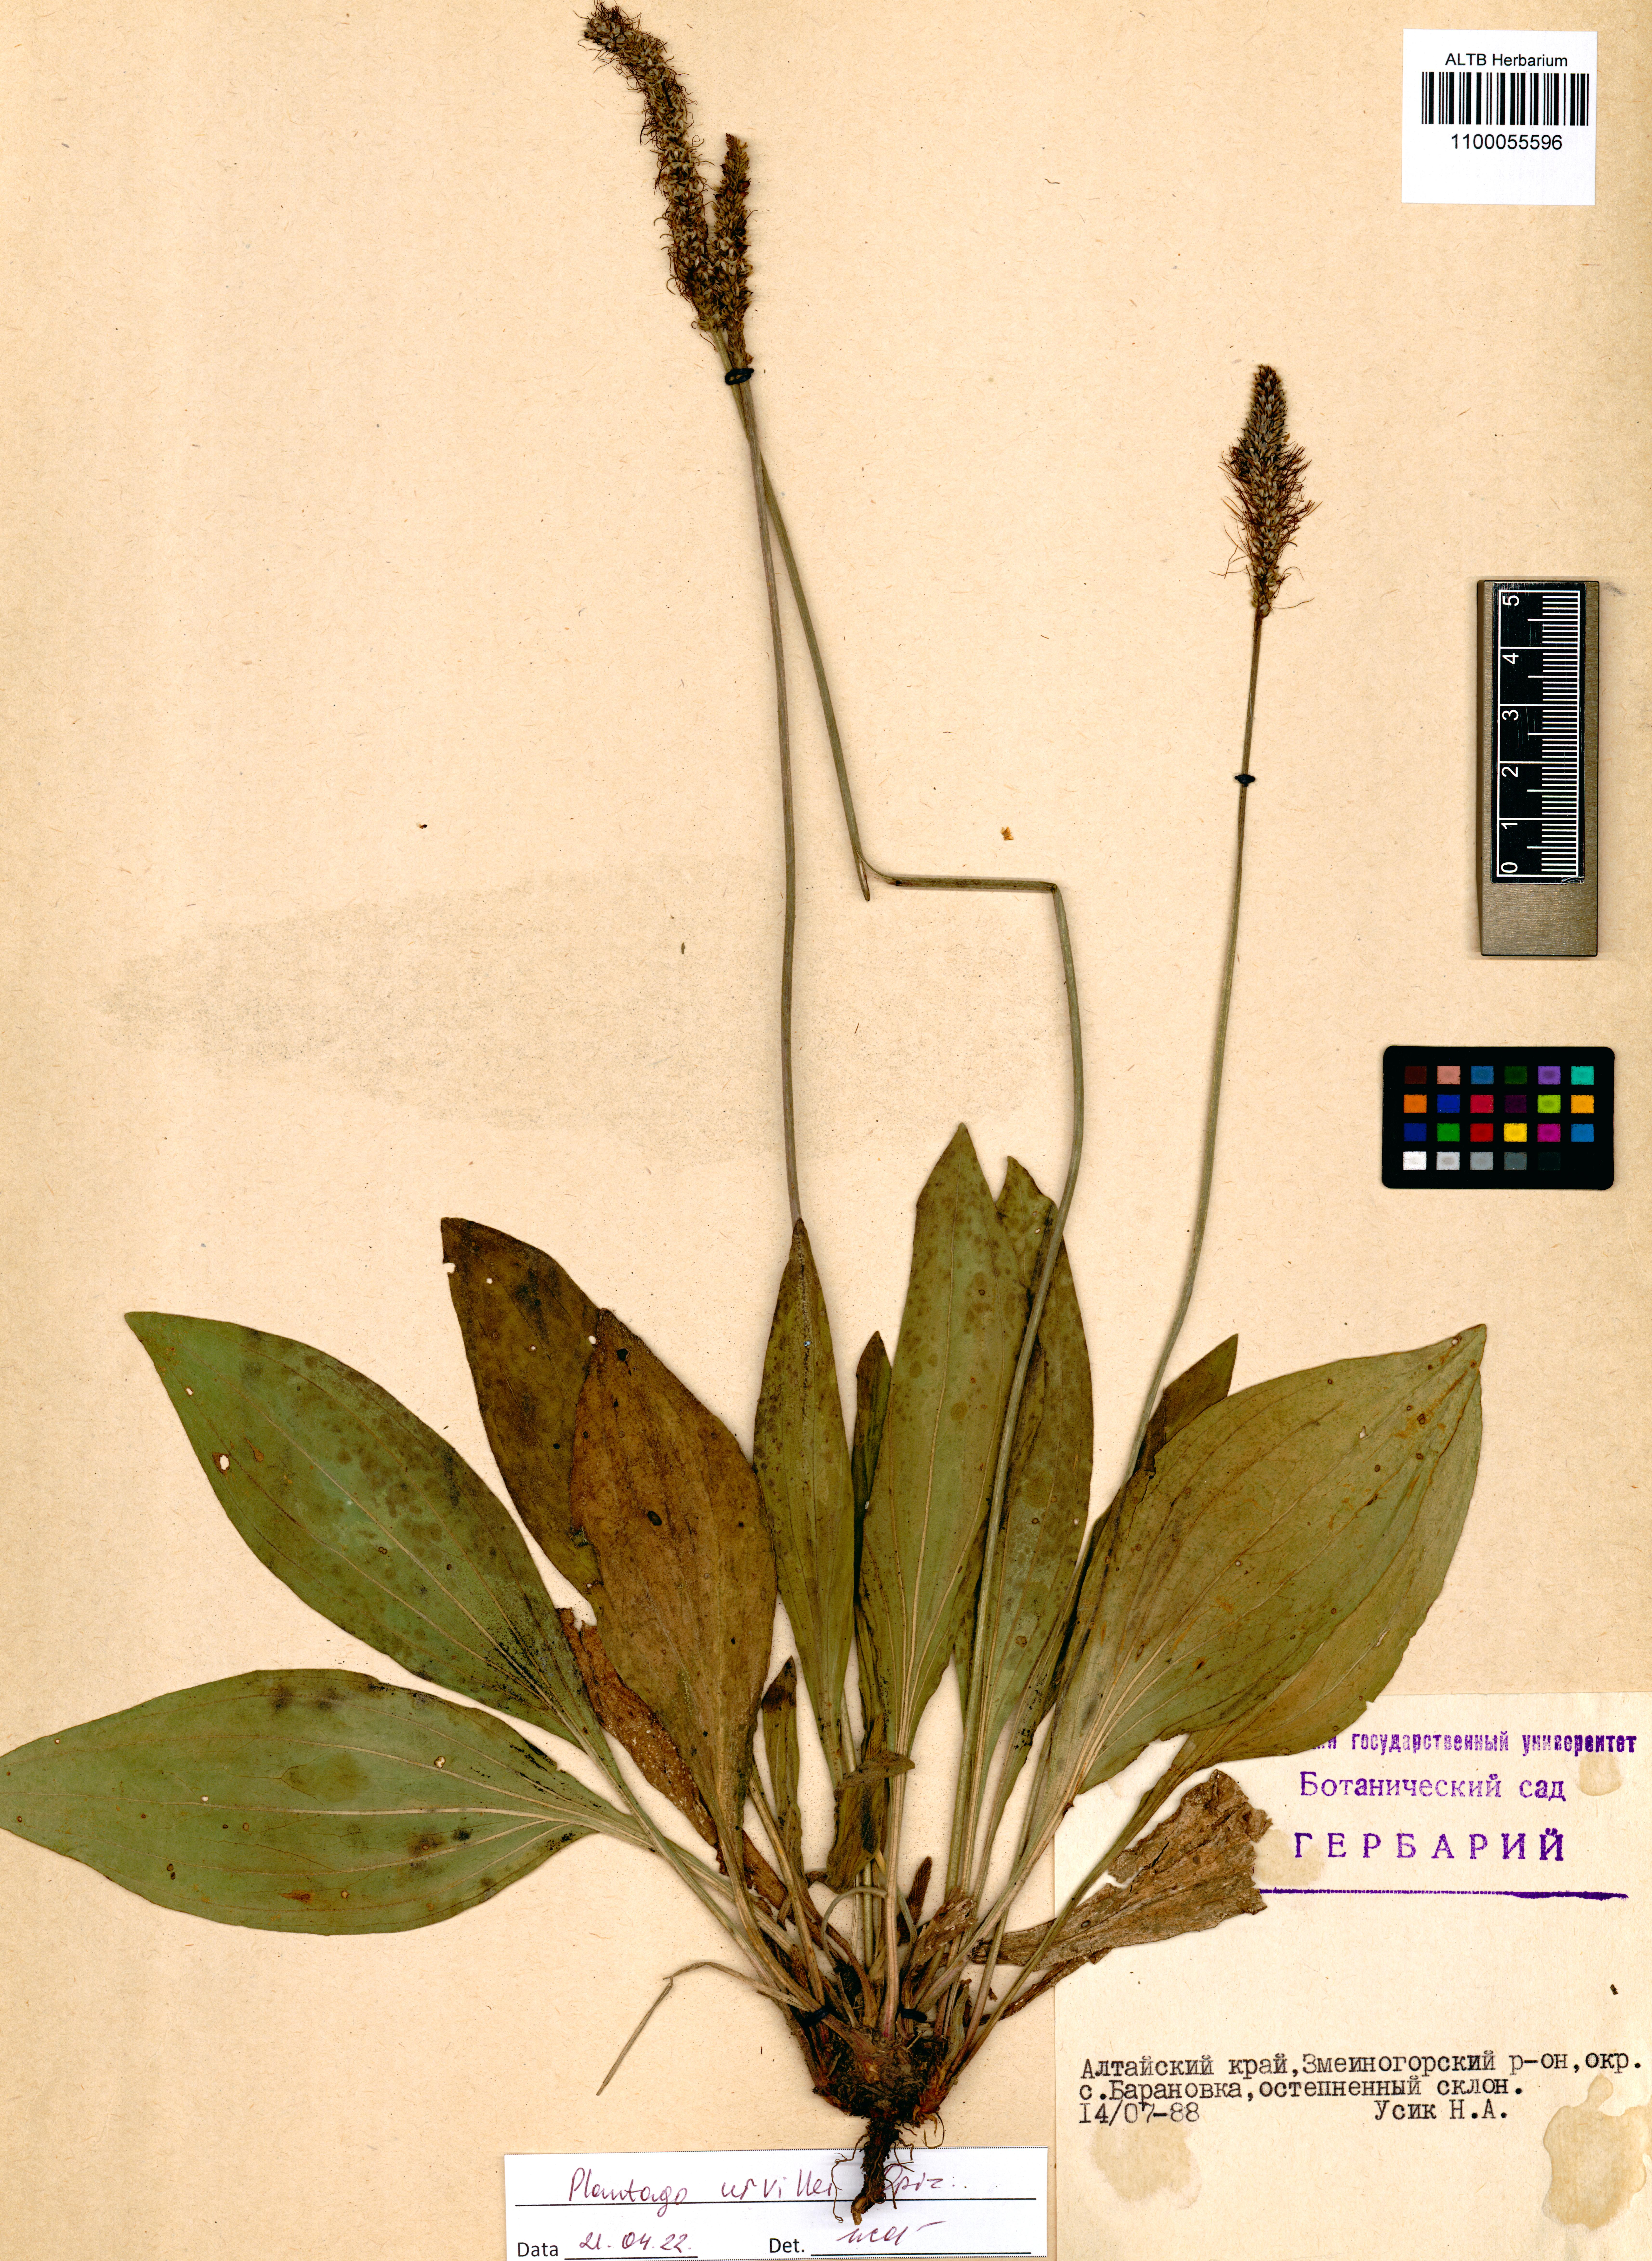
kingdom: Plantae
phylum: Tracheophyta
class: Magnoliopsida
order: Lamiales
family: Plantaginaceae
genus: Plantago
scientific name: Plantago urvillei
